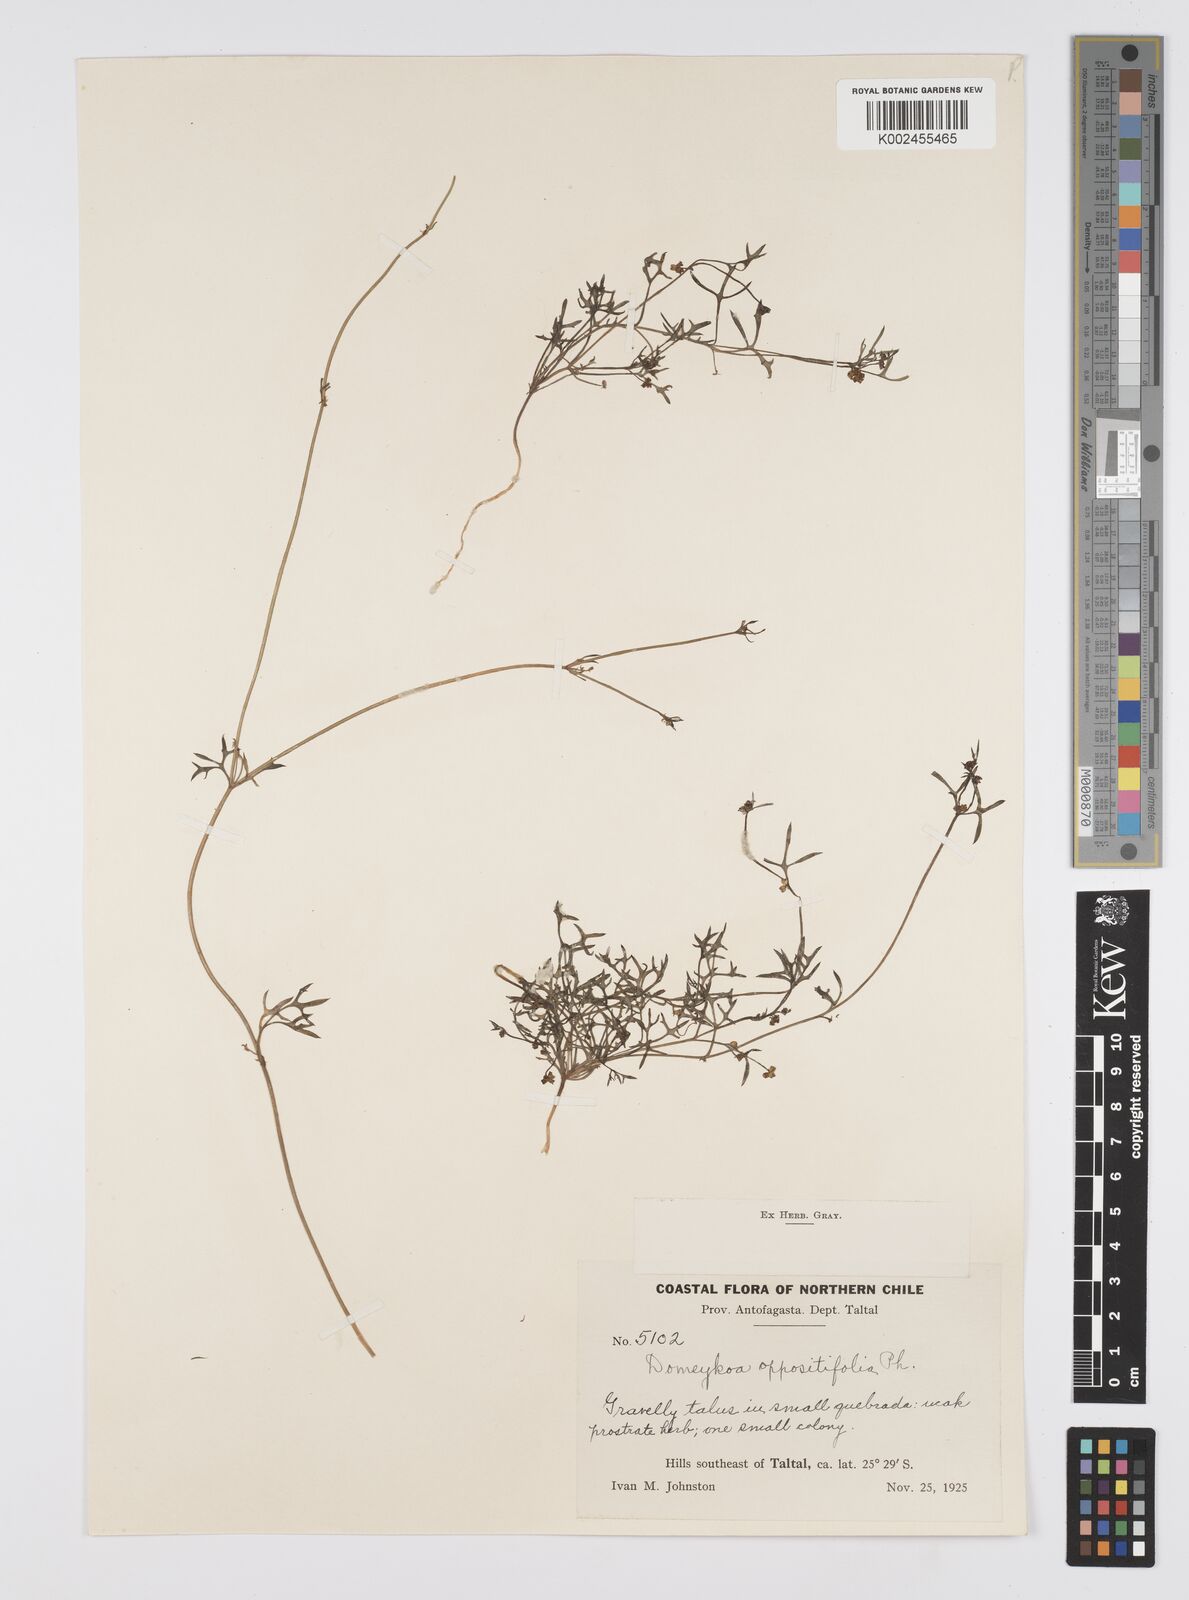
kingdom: Plantae
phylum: Tracheophyta
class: Magnoliopsida
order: Apiales
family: Apiaceae
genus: Domeykoa
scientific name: Domeykoa oppositifolia
